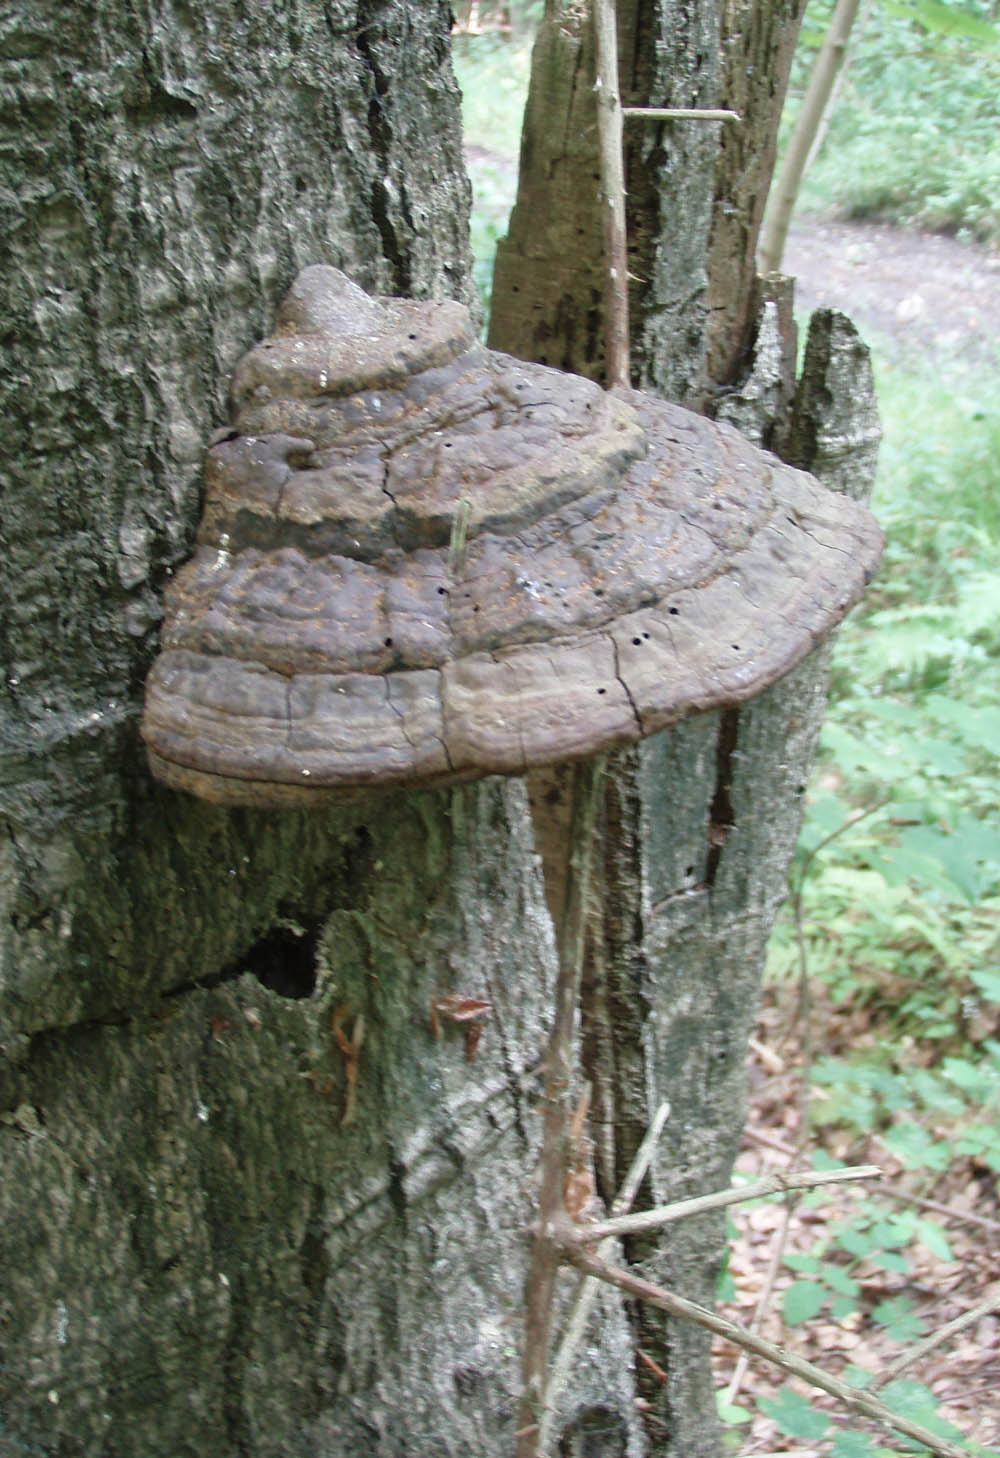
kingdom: Fungi
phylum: Basidiomycota
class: Agaricomycetes
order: Polyporales
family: Polyporaceae
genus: Ganoderma
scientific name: Ganoderma pfeifferi
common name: kobberrød lakporesvamp
